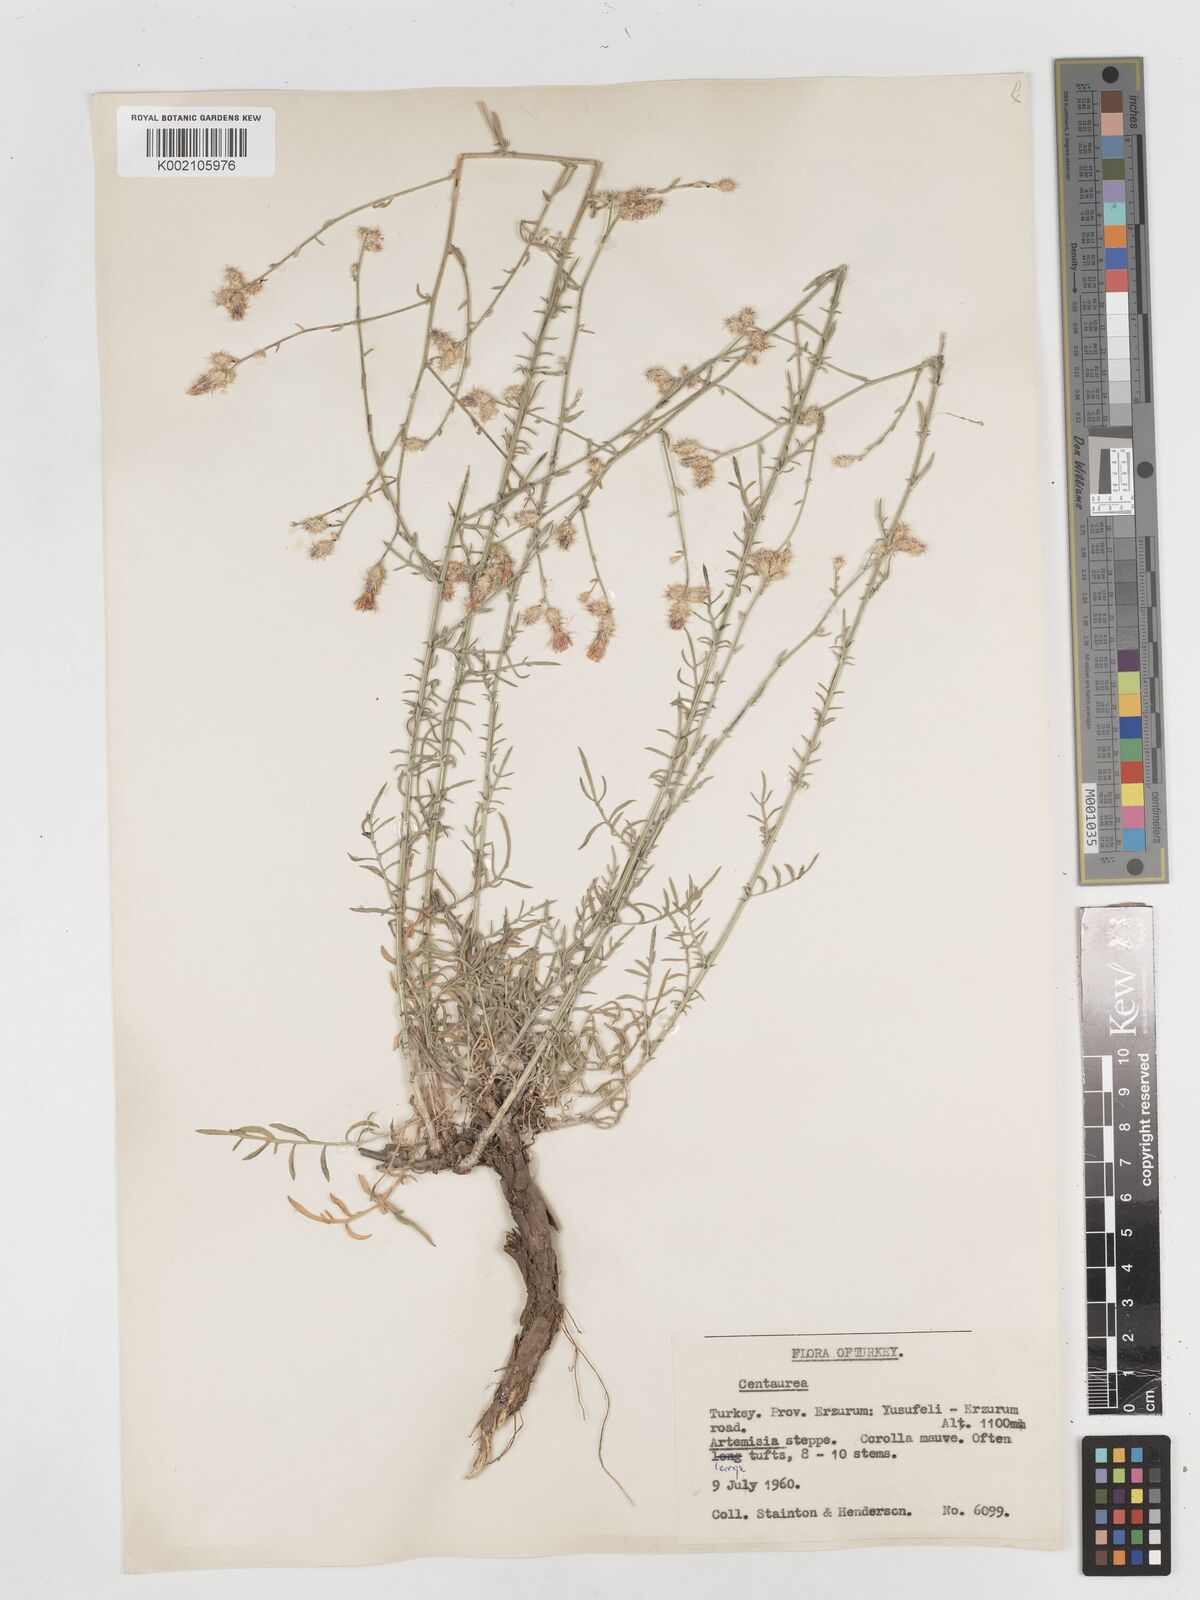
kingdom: Plantae
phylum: Tracheophyta
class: Magnoliopsida
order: Asterales
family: Asteraceae
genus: Centaurea
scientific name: Centaurea
